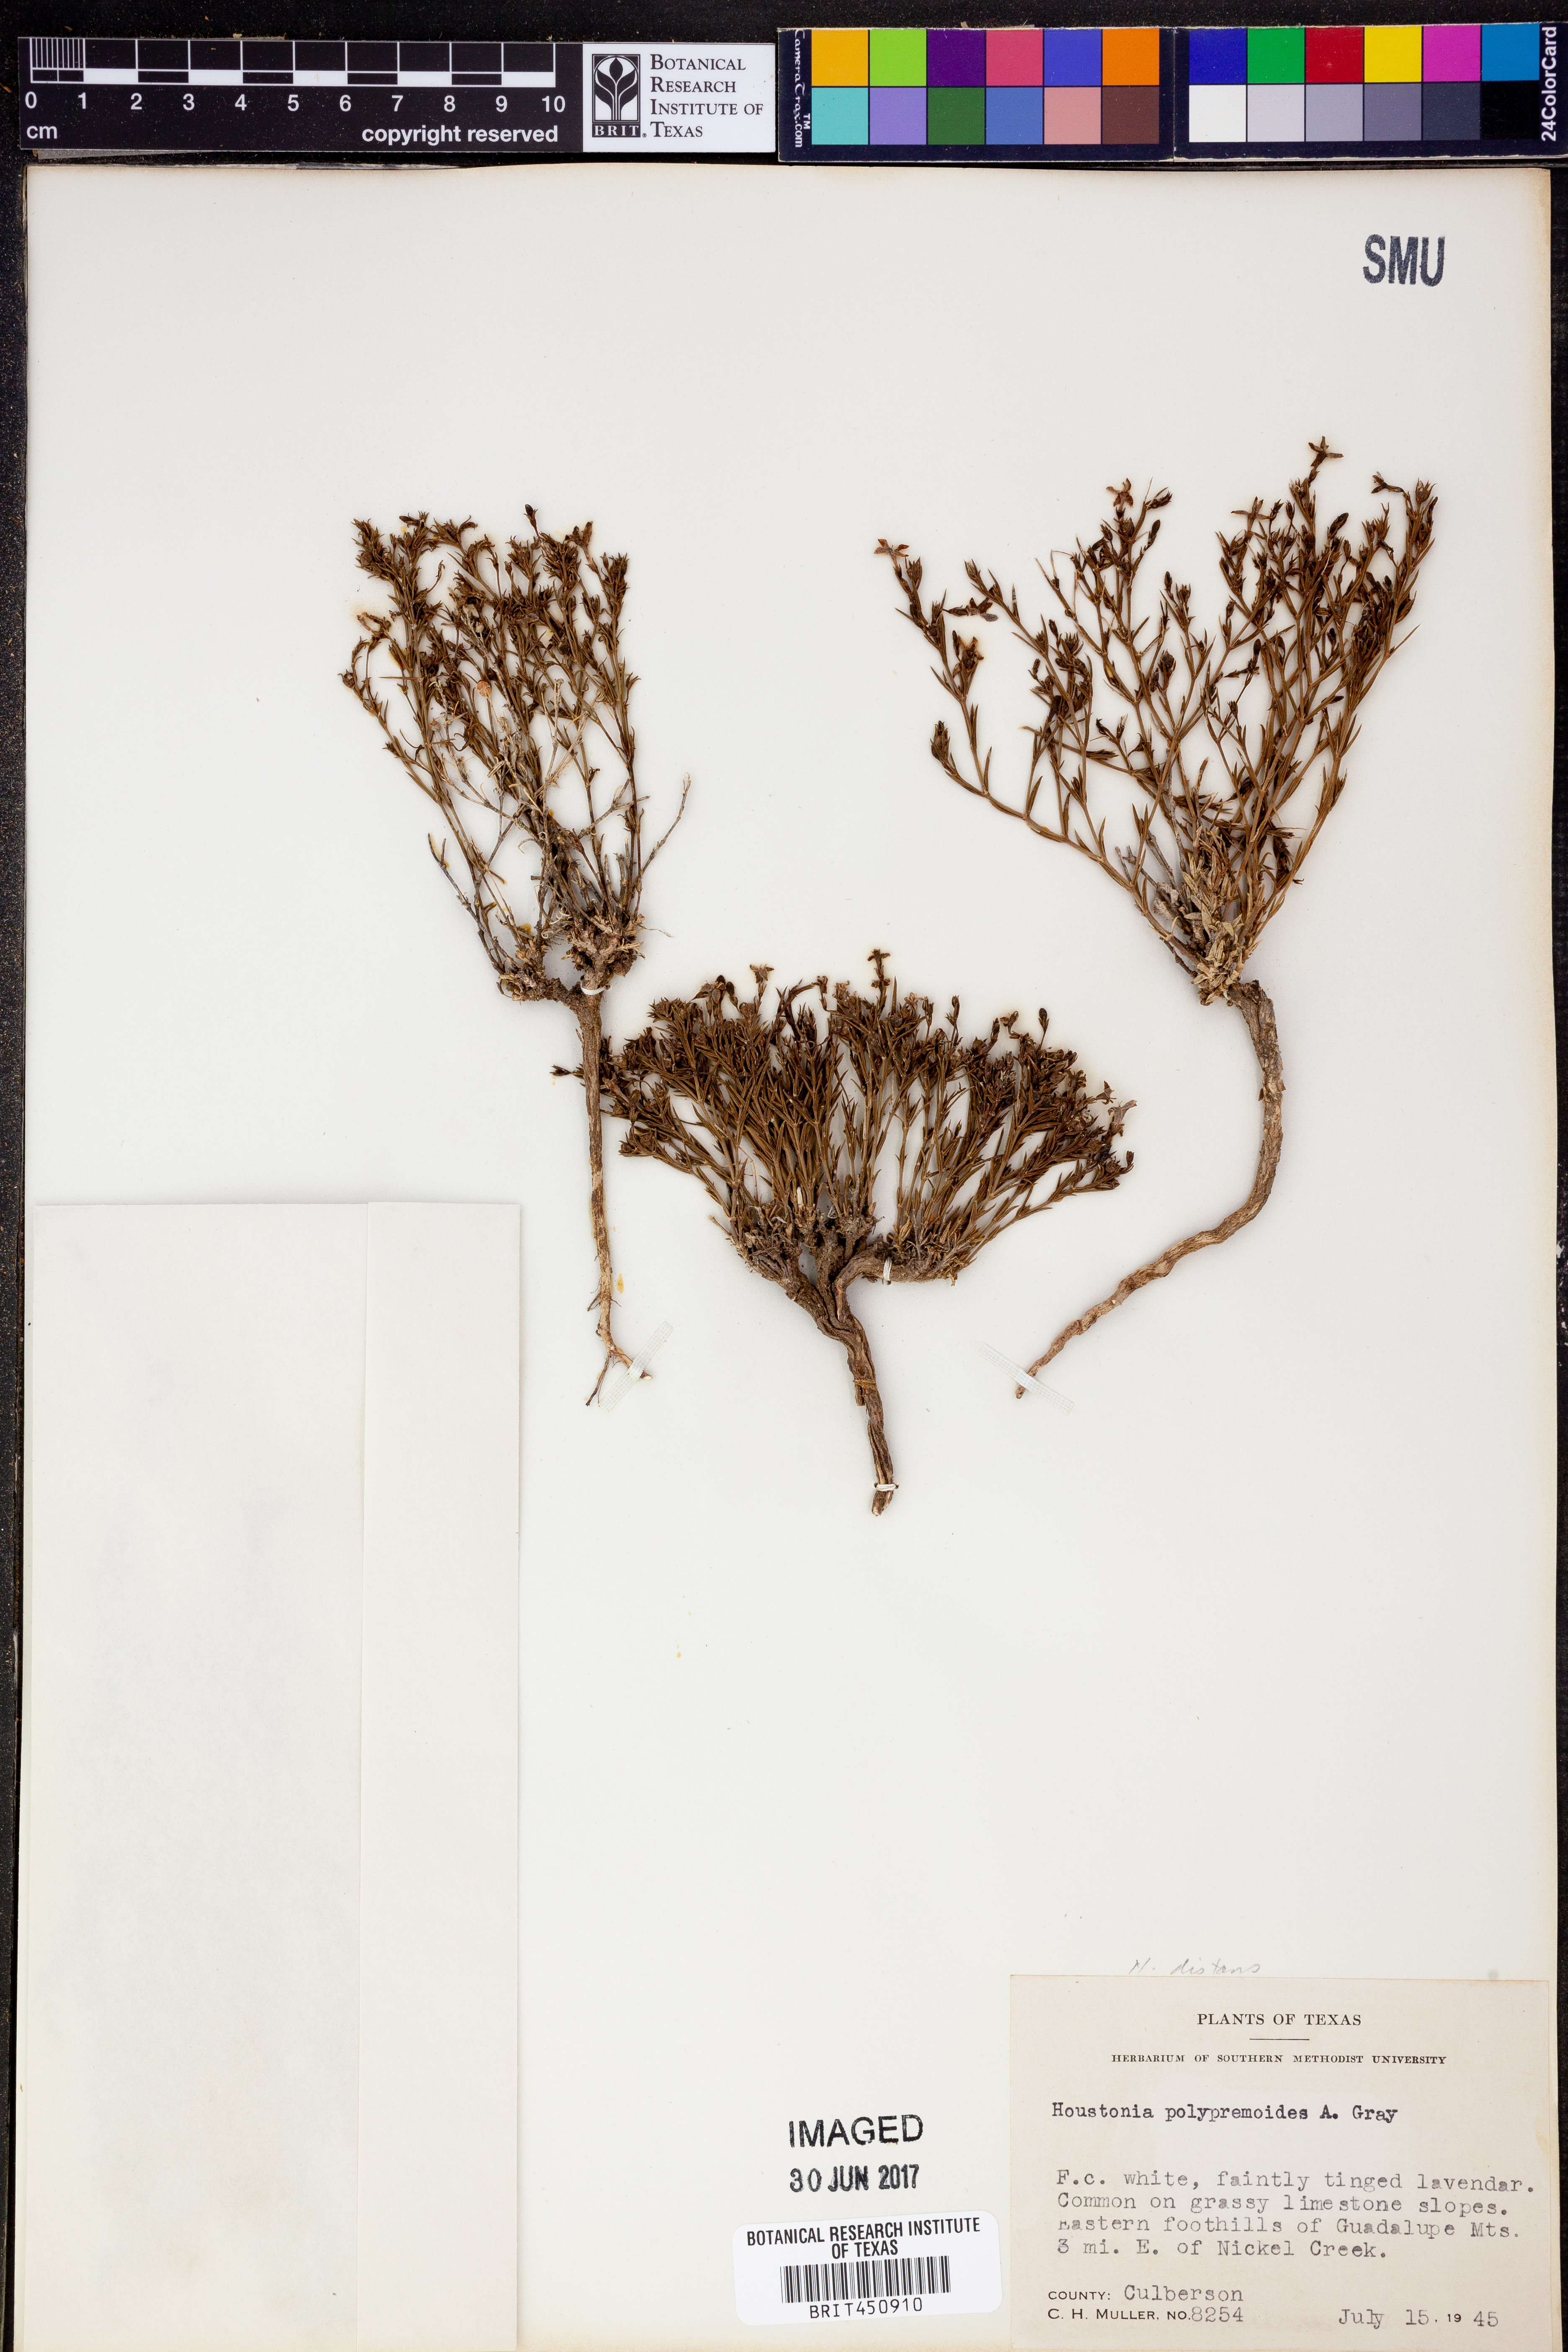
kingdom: Plantae
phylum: Tracheophyta
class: Magnoliopsida
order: Gentianales
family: Rubiaceae
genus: Houstonia
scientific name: Houstonia acerosa
